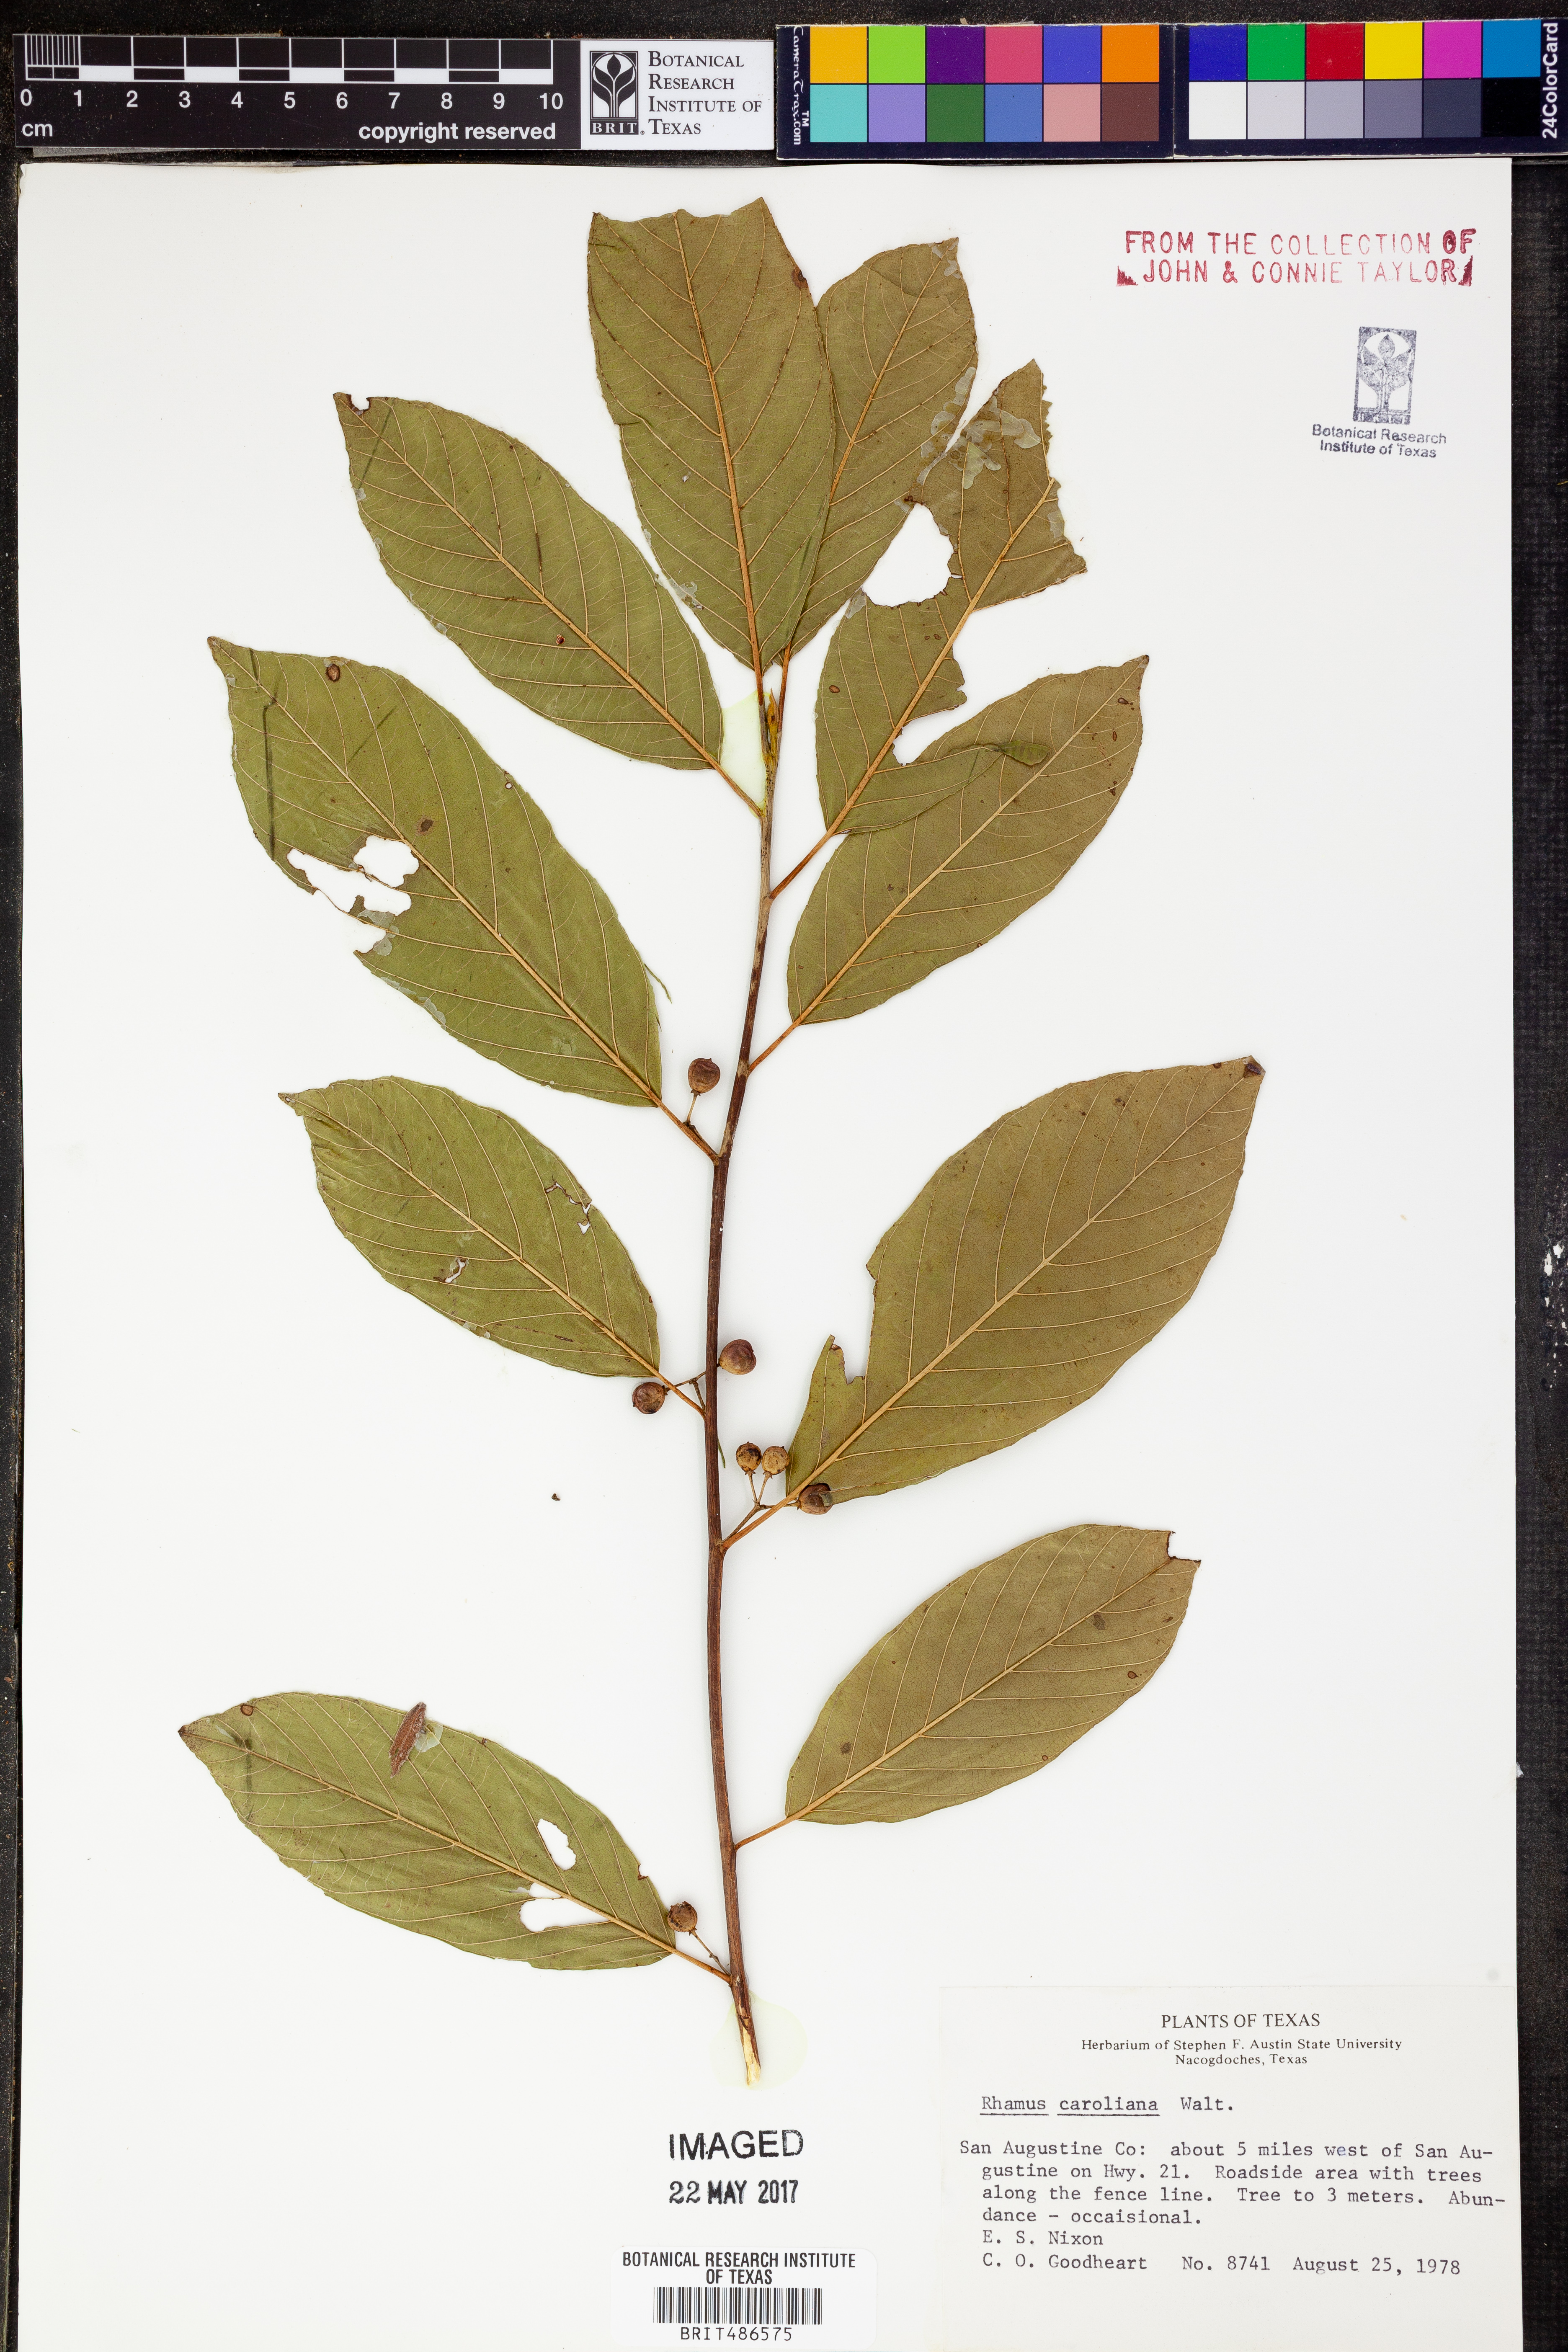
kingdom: Plantae
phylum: Tracheophyta
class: Magnoliopsida
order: Rosales
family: Rhamnaceae
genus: Frangula
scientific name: Frangula caroliniana
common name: Carolina buckthorn
